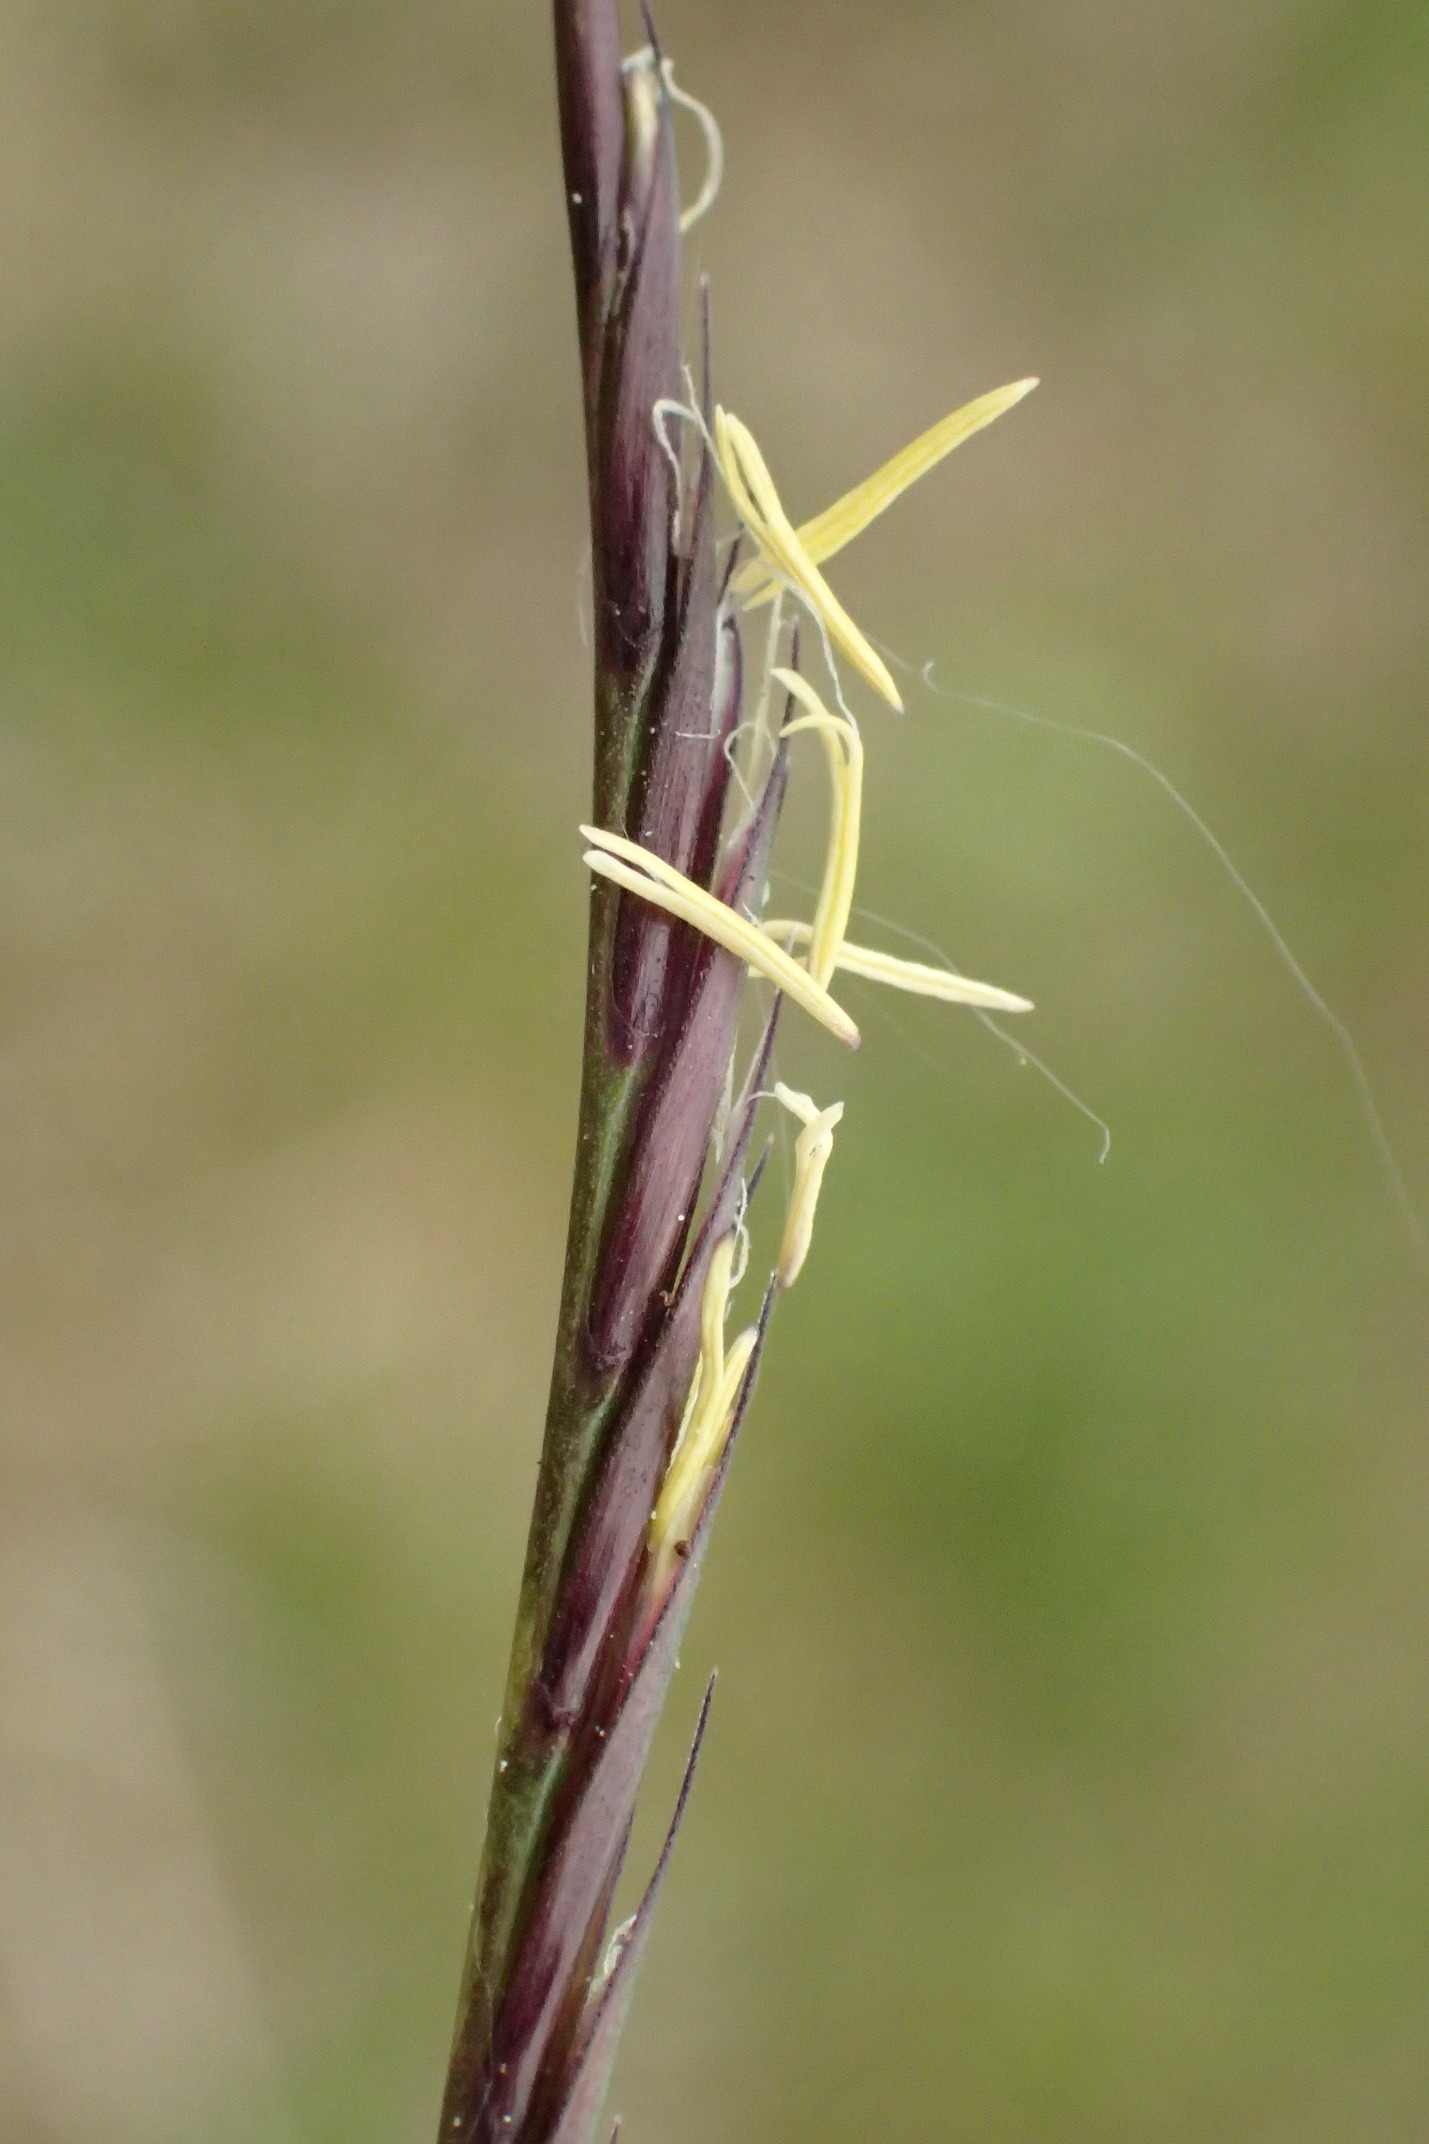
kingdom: Plantae
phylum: Tracheophyta
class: Liliopsida
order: Poales
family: Poaceae
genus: Nardus
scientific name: Nardus stricta
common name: Katteskæg
